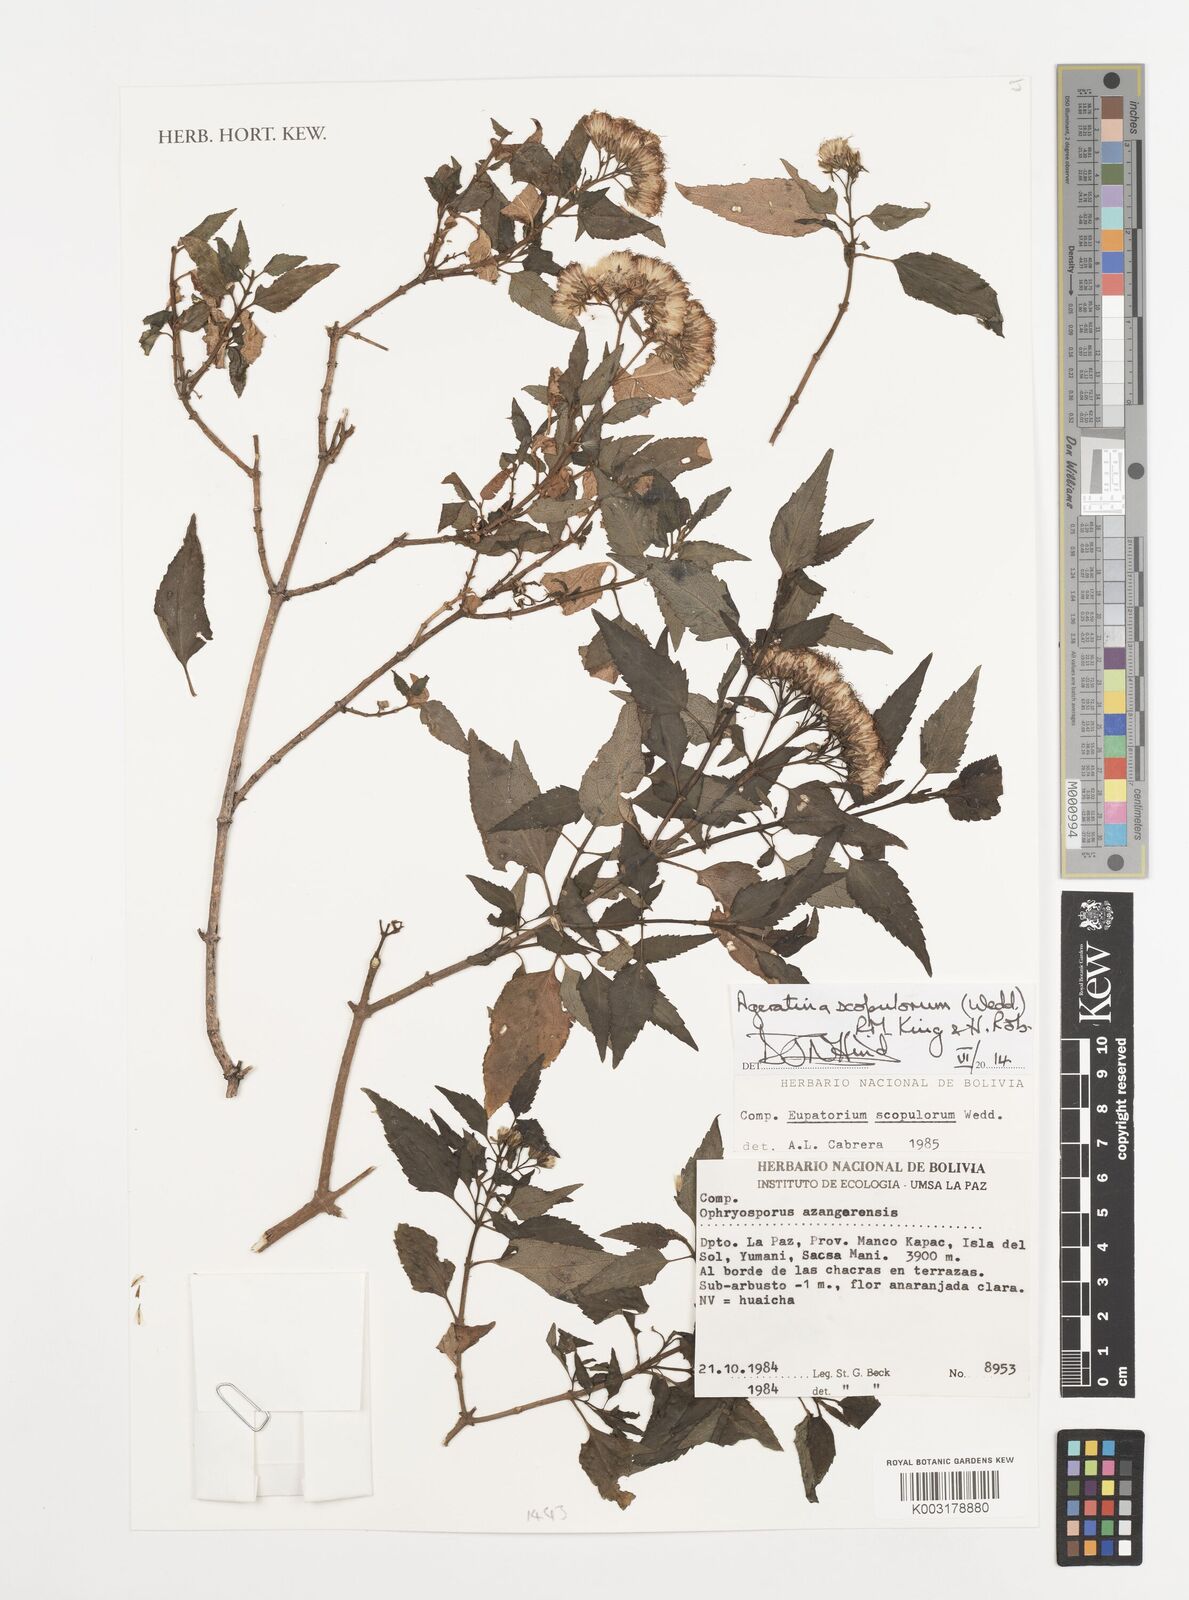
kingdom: Plantae
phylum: Tracheophyta
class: Magnoliopsida
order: Asterales
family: Asteraceae
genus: Ageratina
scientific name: Ageratina scopulorum
